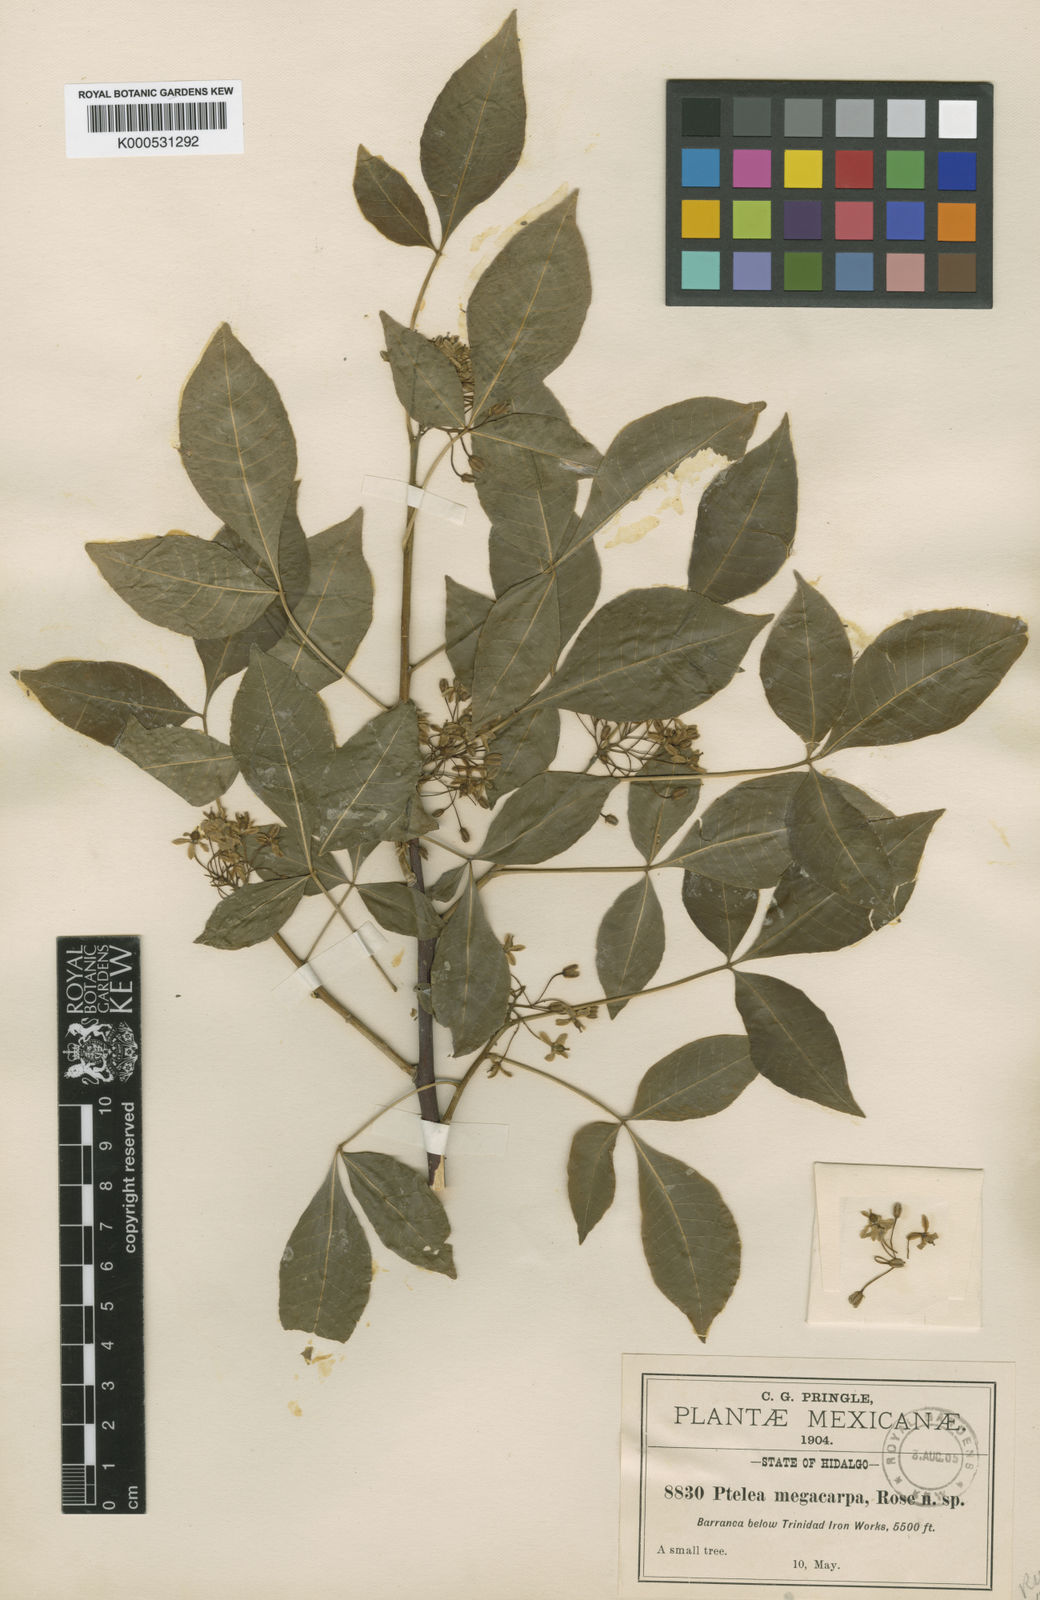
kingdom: Plantae
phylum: Tracheophyta
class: Magnoliopsida
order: Sapindales
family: Rutaceae
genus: Ptelea
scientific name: Ptelea
